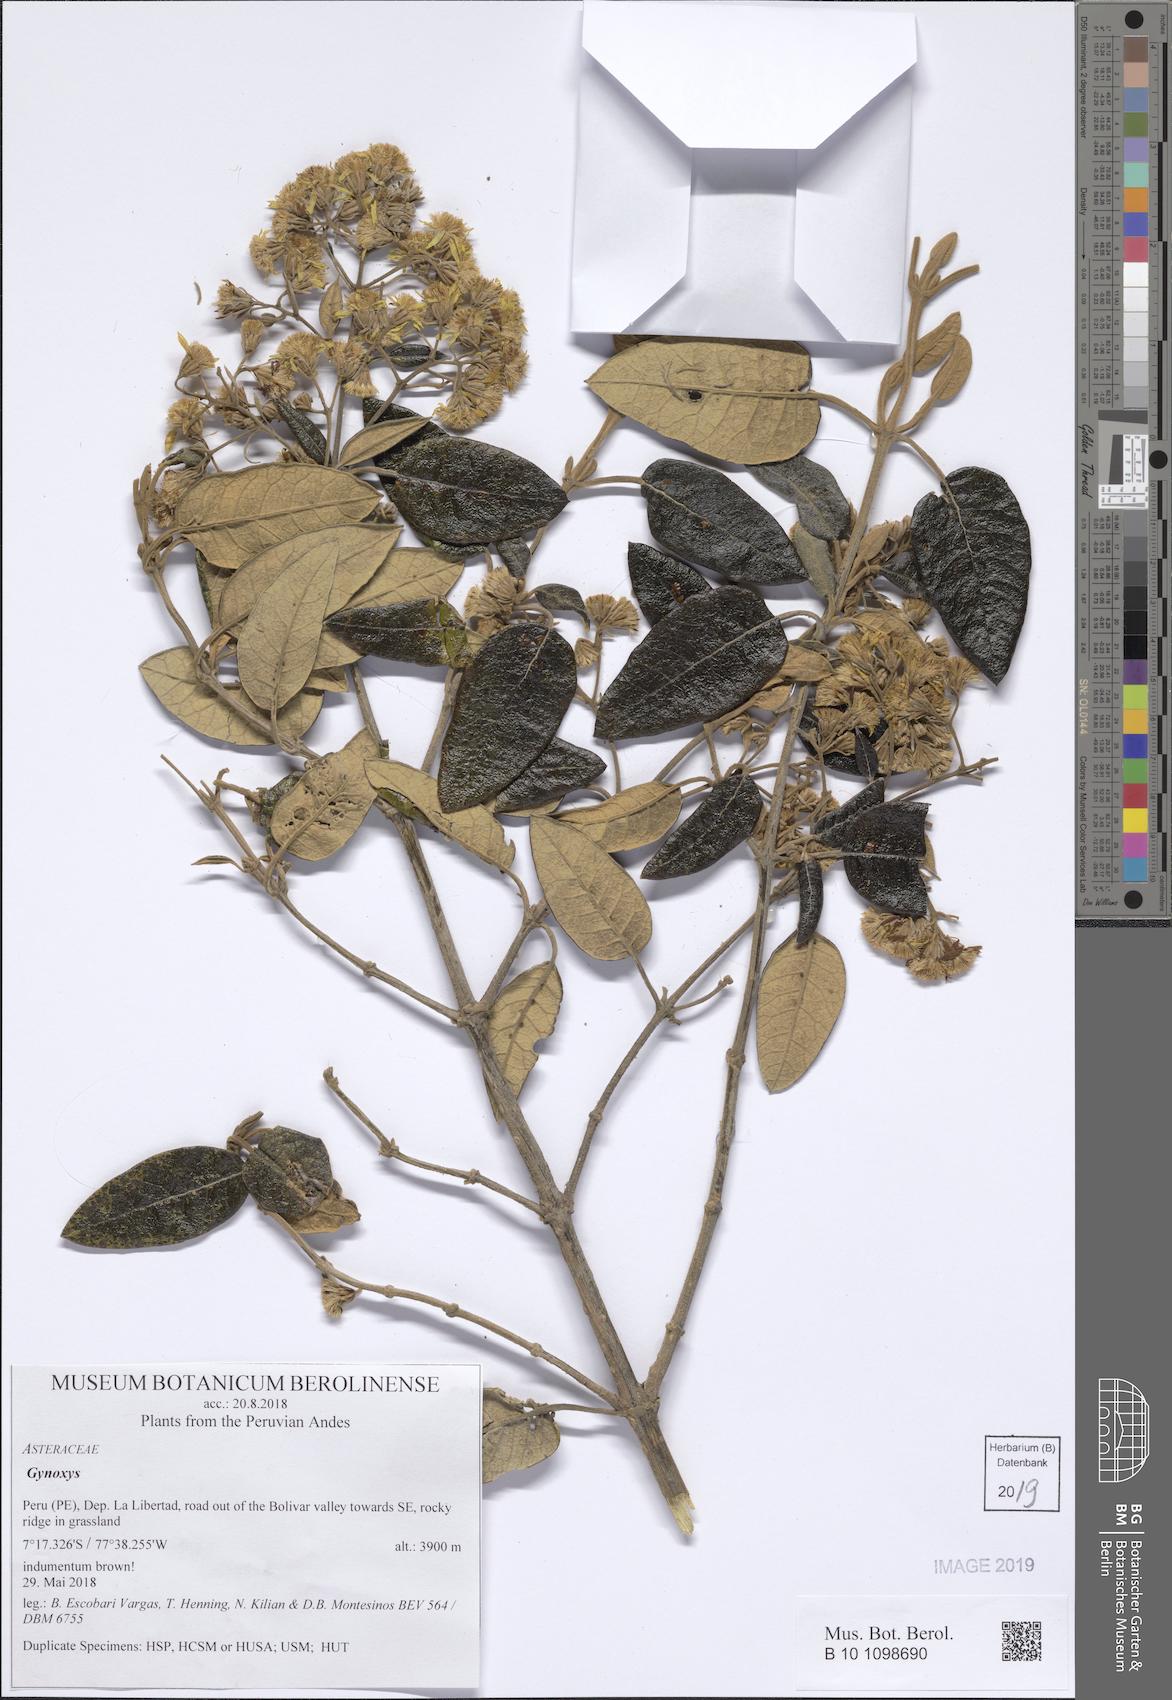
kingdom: Plantae
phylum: Tracheophyta
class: Magnoliopsida
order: Asterales
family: Asteraceae
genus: Gynoxys
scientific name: Gynoxys
